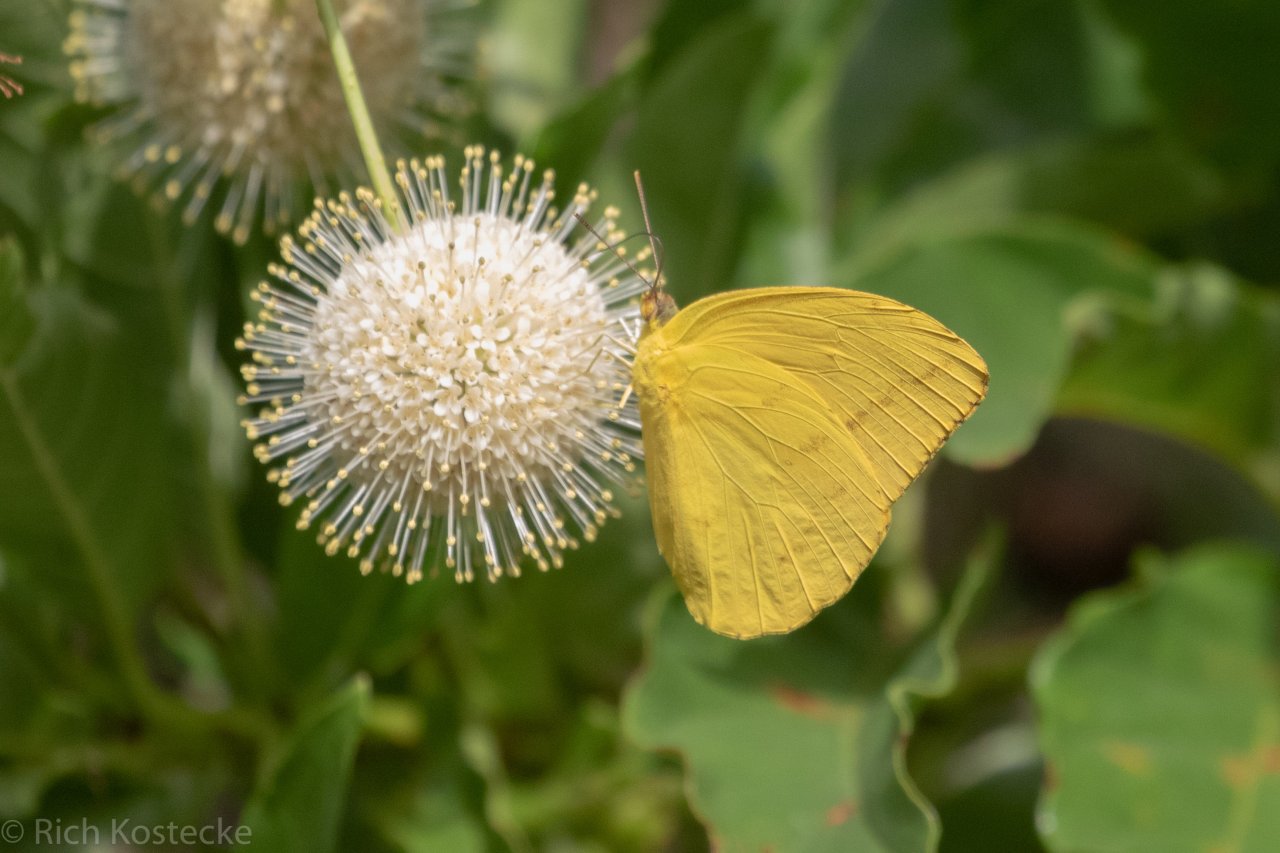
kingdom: Animalia
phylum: Arthropoda
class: Insecta
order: Lepidoptera
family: Pieridae
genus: Phoebis
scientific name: Phoebis agarithe
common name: Large Orange Sulphur
